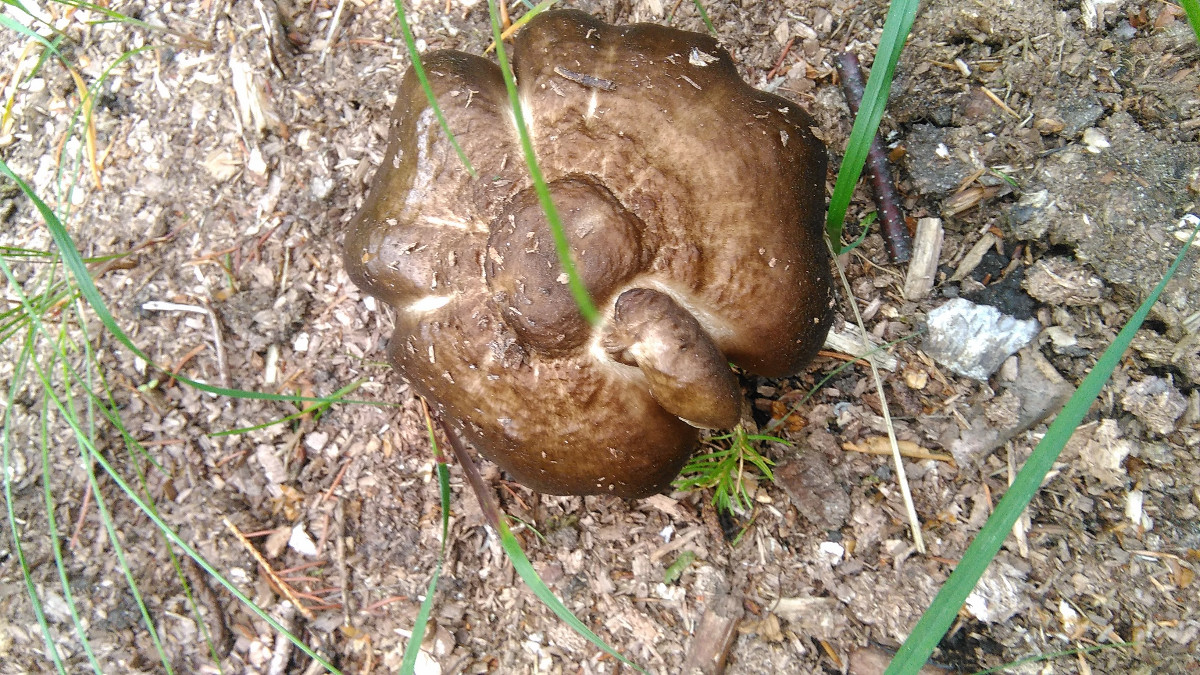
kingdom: Fungi
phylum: Basidiomycota
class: Agaricomycetes
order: Agaricales
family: Pluteaceae
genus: Pluteus
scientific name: Pluteus cervinus
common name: sodfarvet skærmhat
